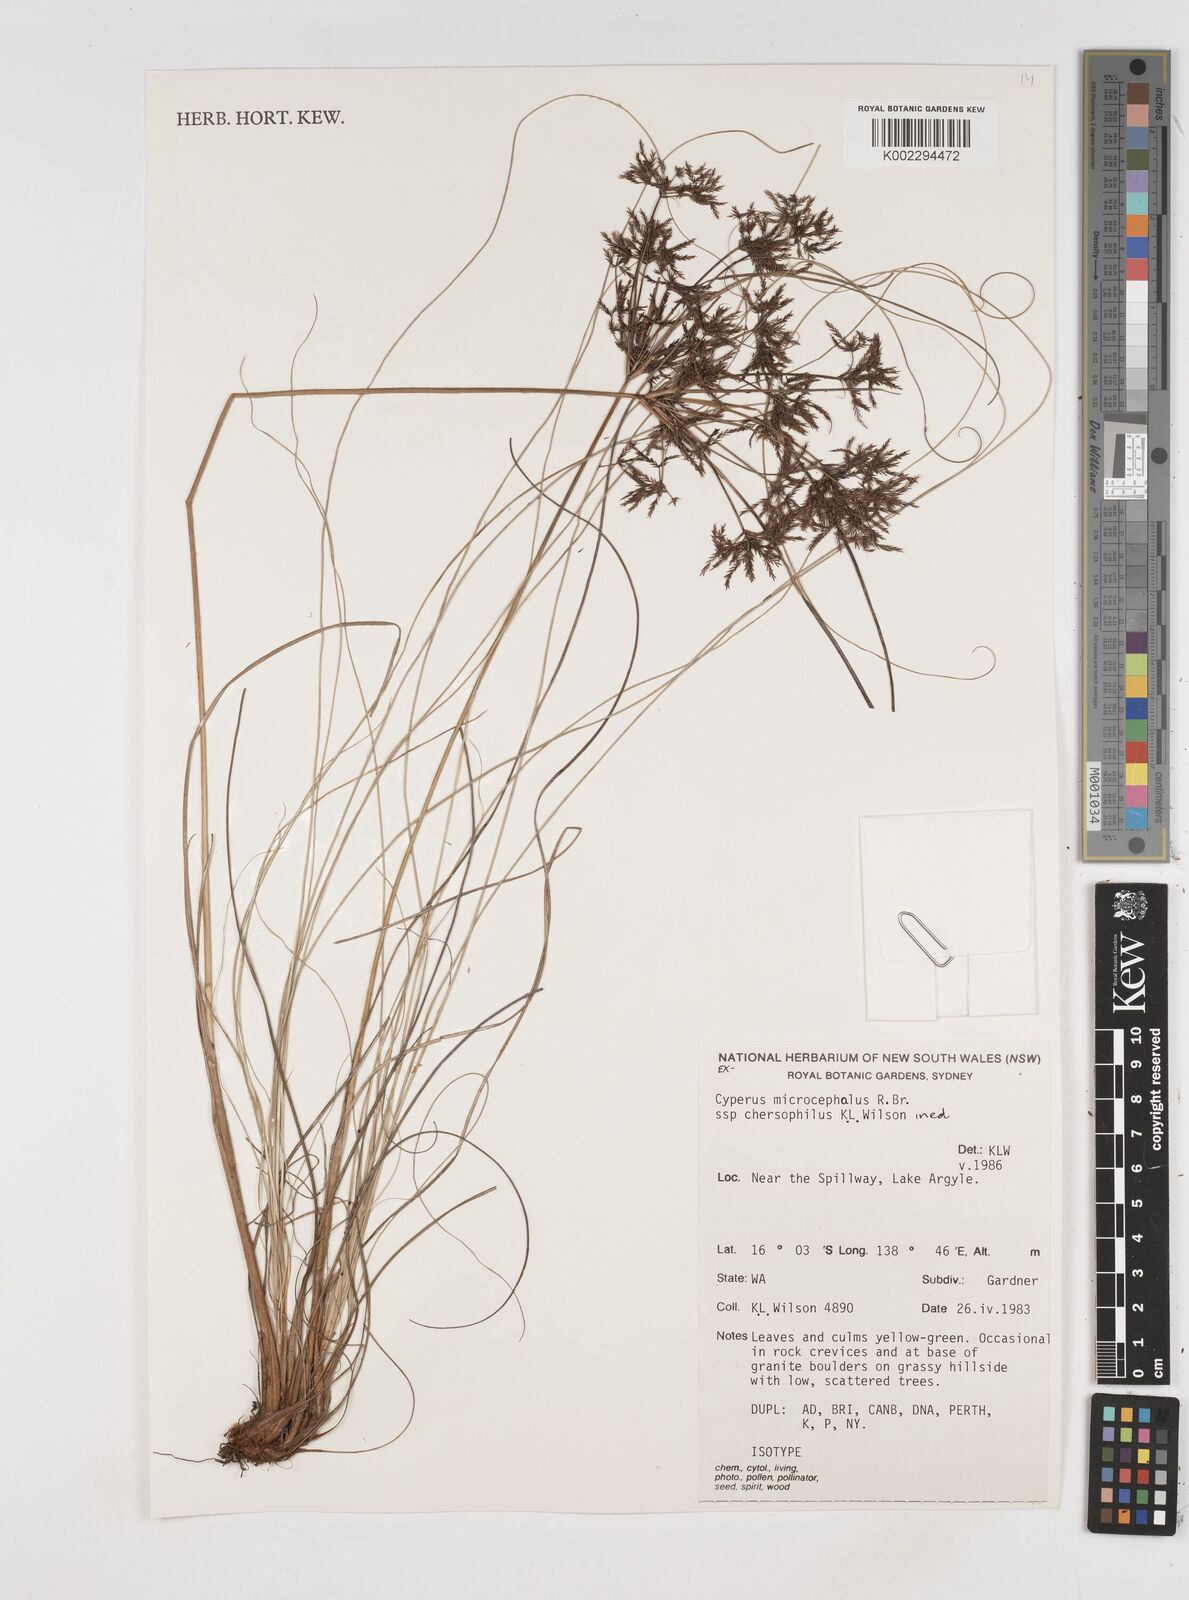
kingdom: Plantae
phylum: Tracheophyta
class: Liliopsida
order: Poales
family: Cyperaceae
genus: Cyperus
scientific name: Cyperus sporobolus
